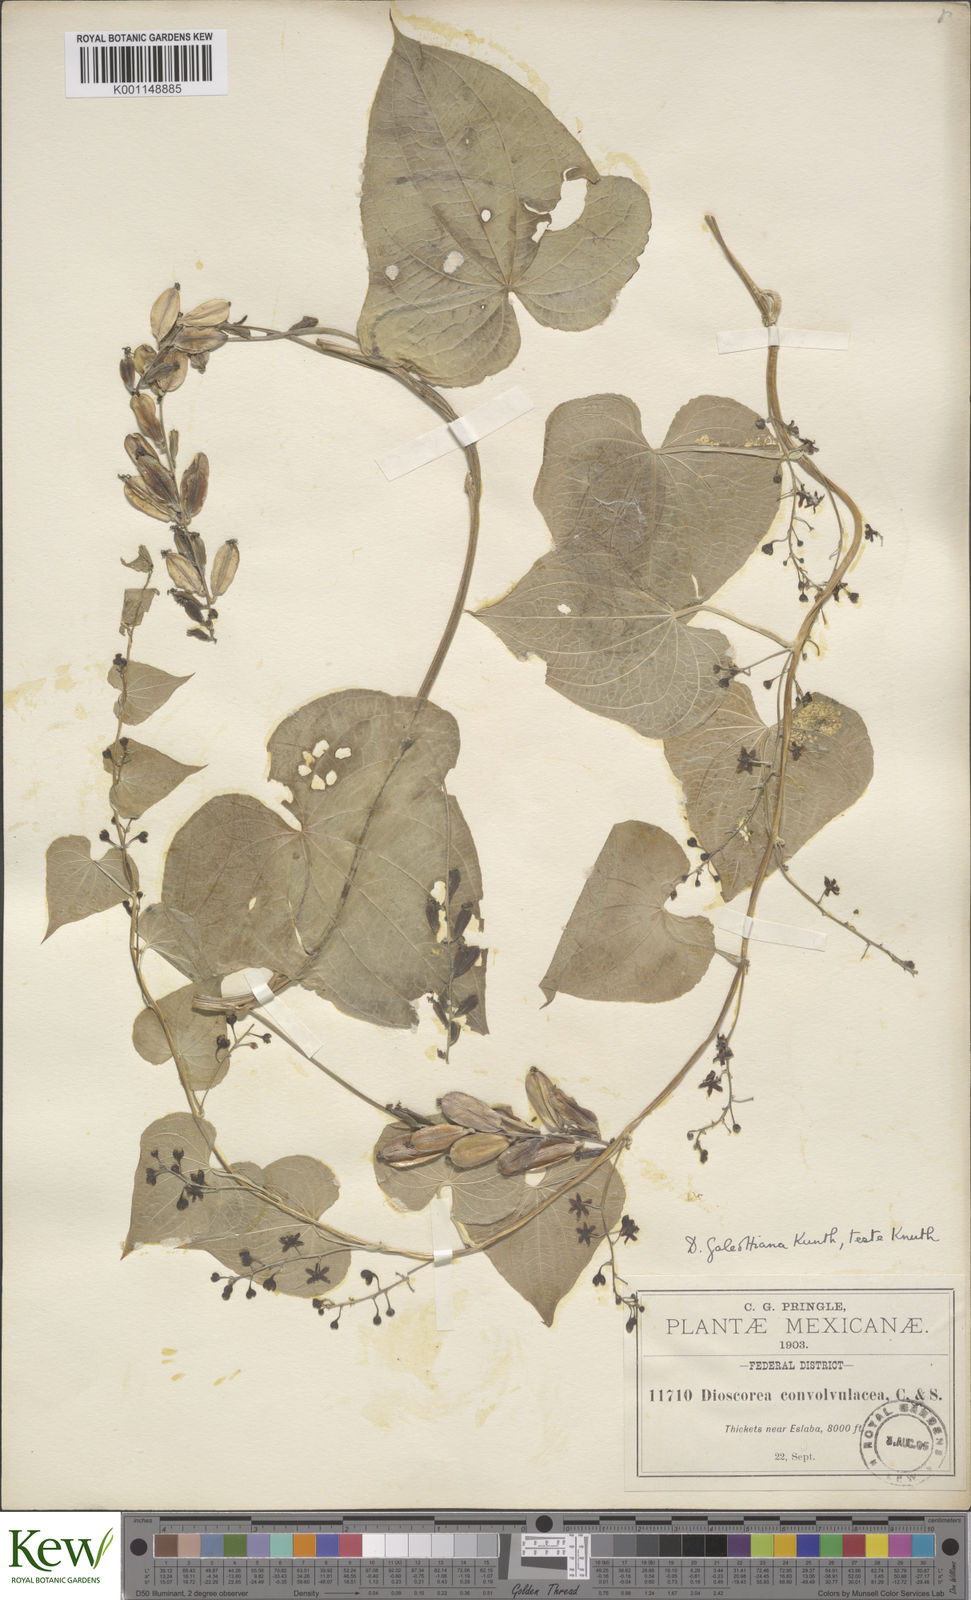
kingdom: Plantae
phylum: Tracheophyta
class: Liliopsida
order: Dioscoreales
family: Dioscoreaceae
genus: Dioscorea
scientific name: Dioscorea galeottiana
